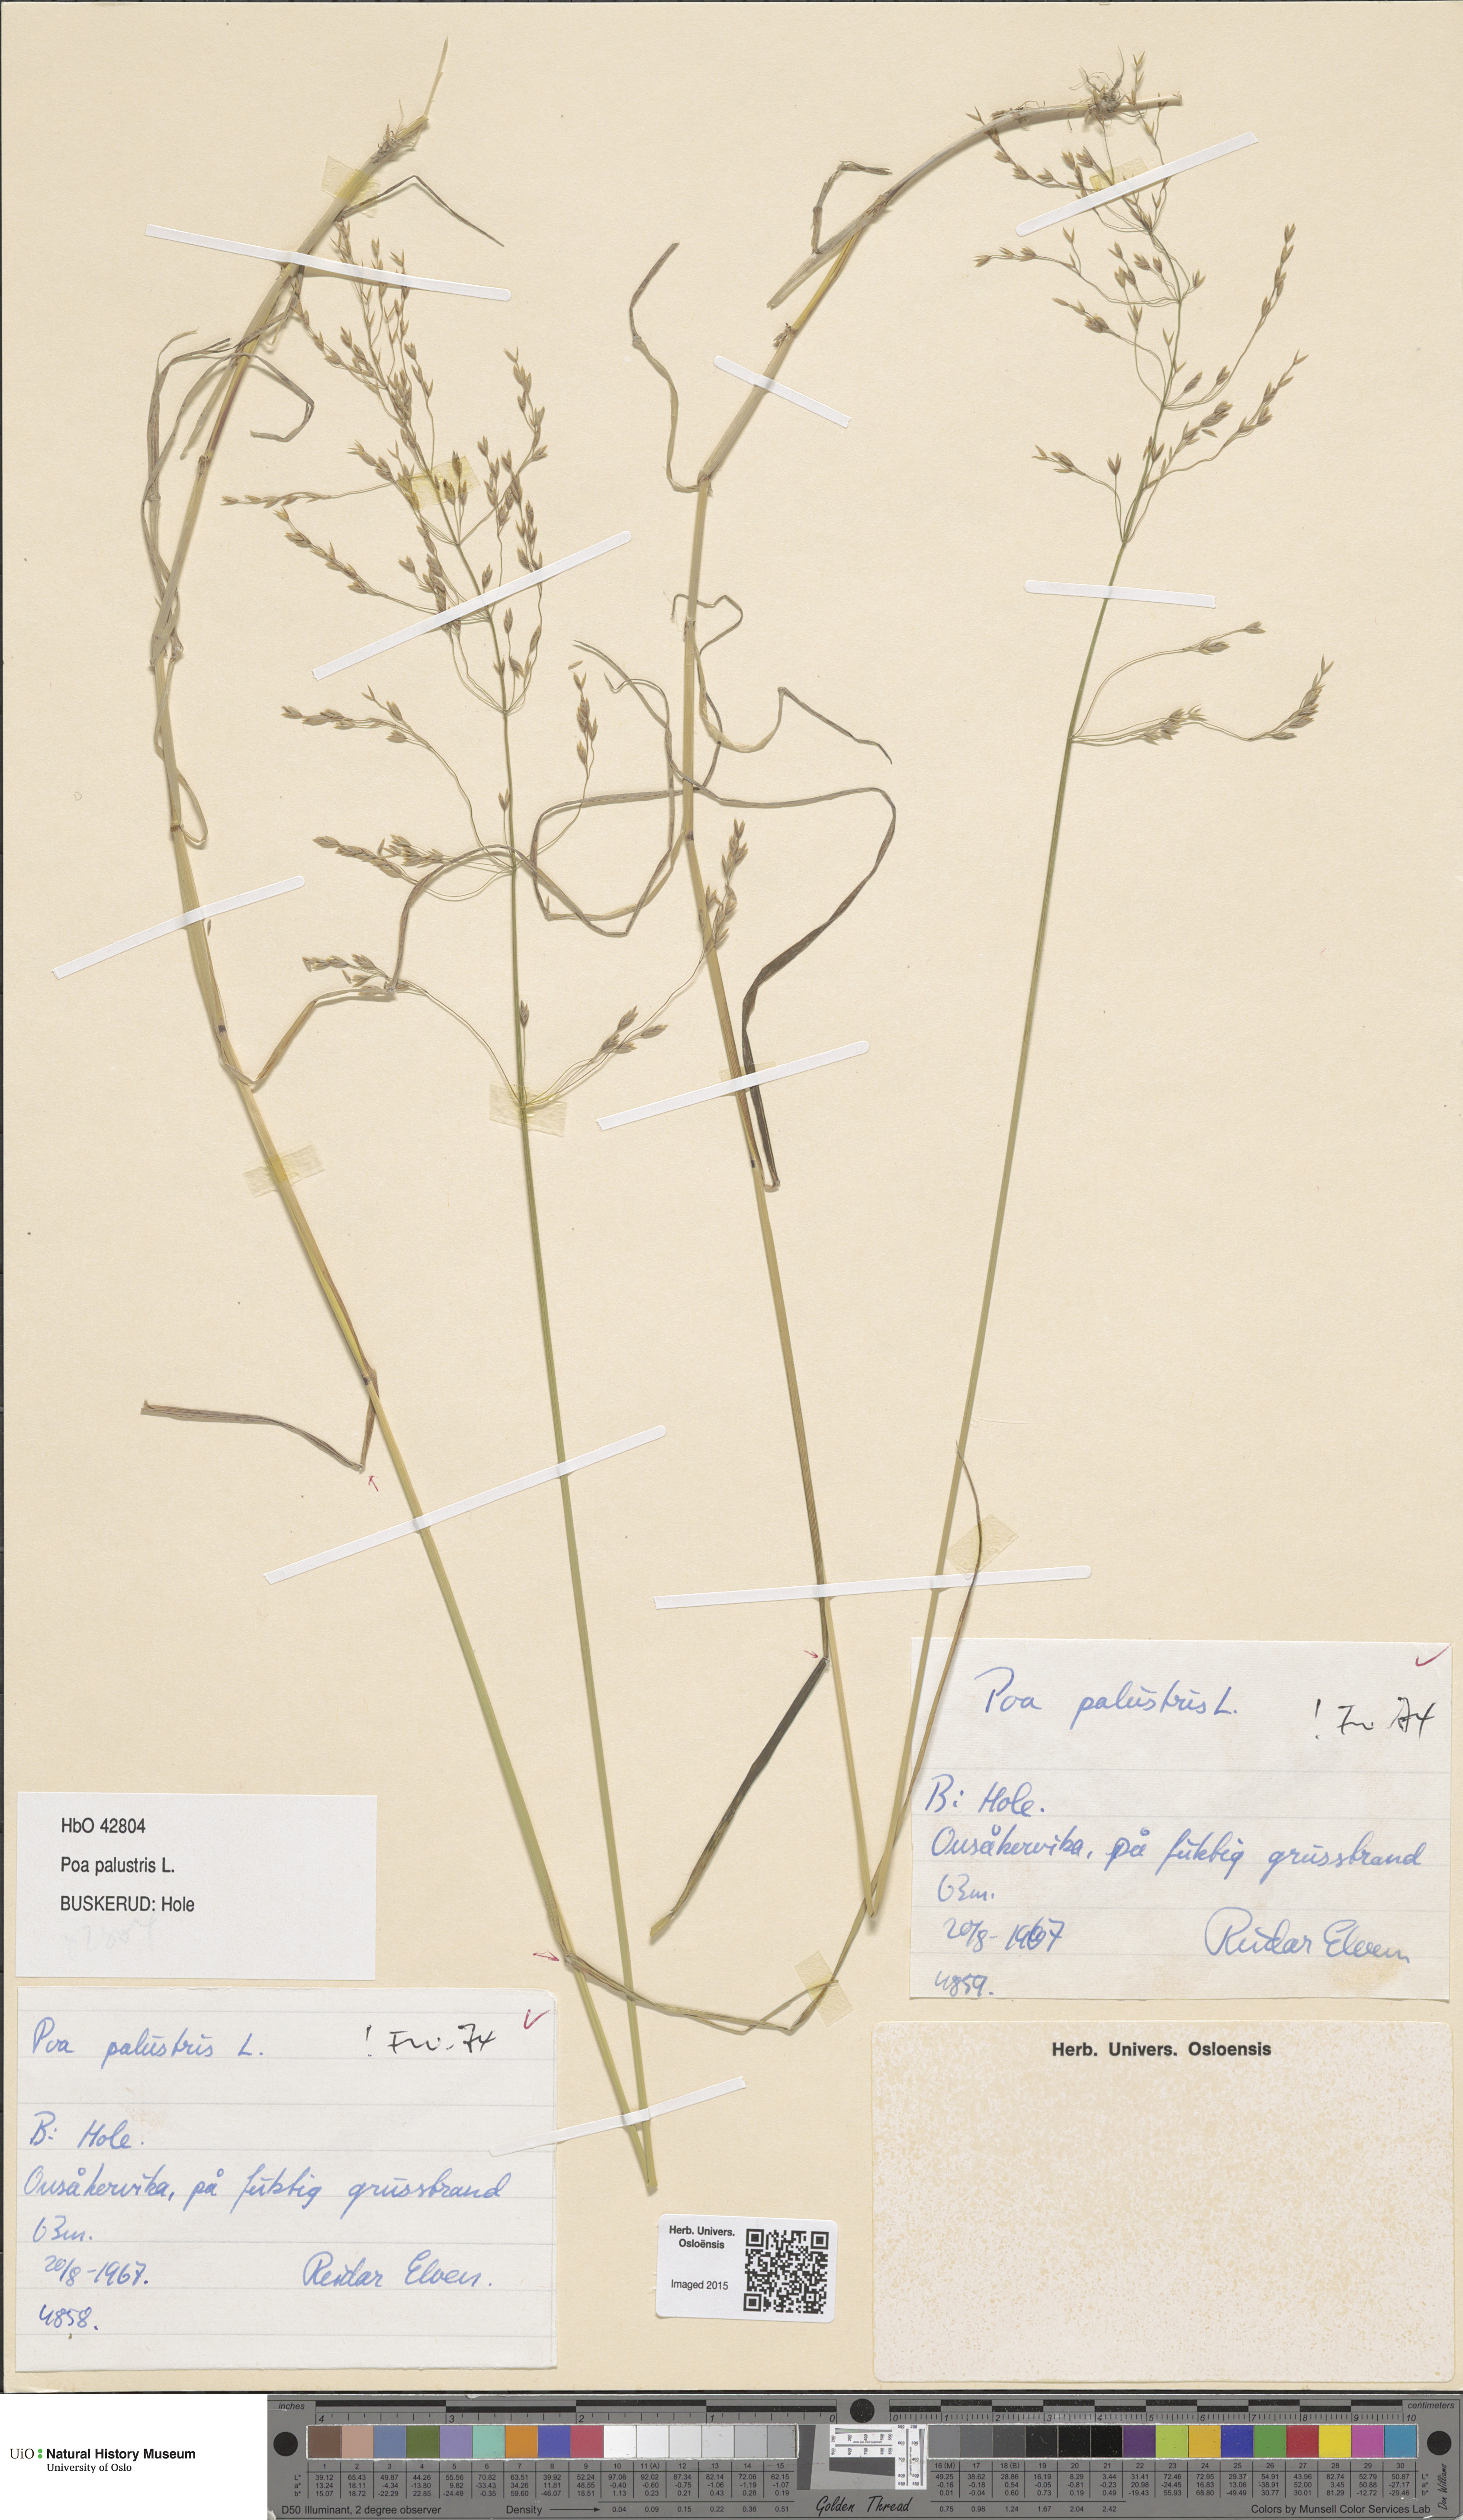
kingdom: Plantae
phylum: Tracheophyta
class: Liliopsida
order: Poales
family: Poaceae
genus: Poa
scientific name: Poa palustris
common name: Swamp meadow-grass
